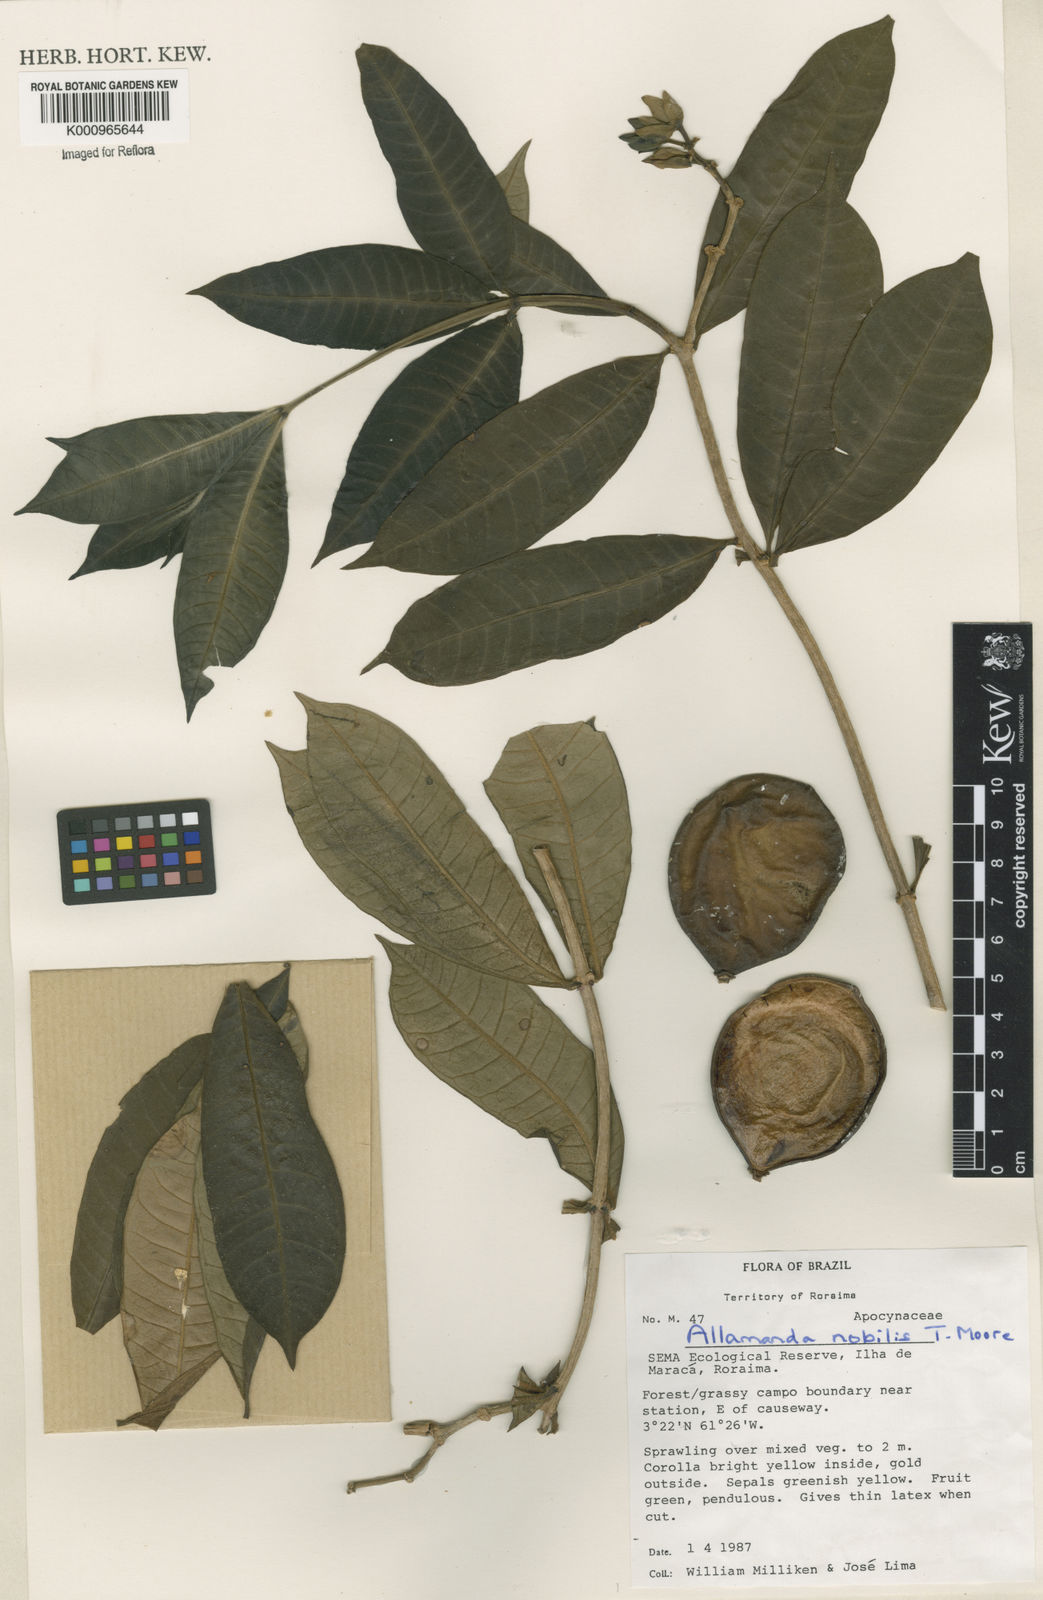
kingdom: Plantae
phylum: Tracheophyta
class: Magnoliopsida
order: Gentianales
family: Apocynaceae
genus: Allamanda
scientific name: Allamanda nobilis
